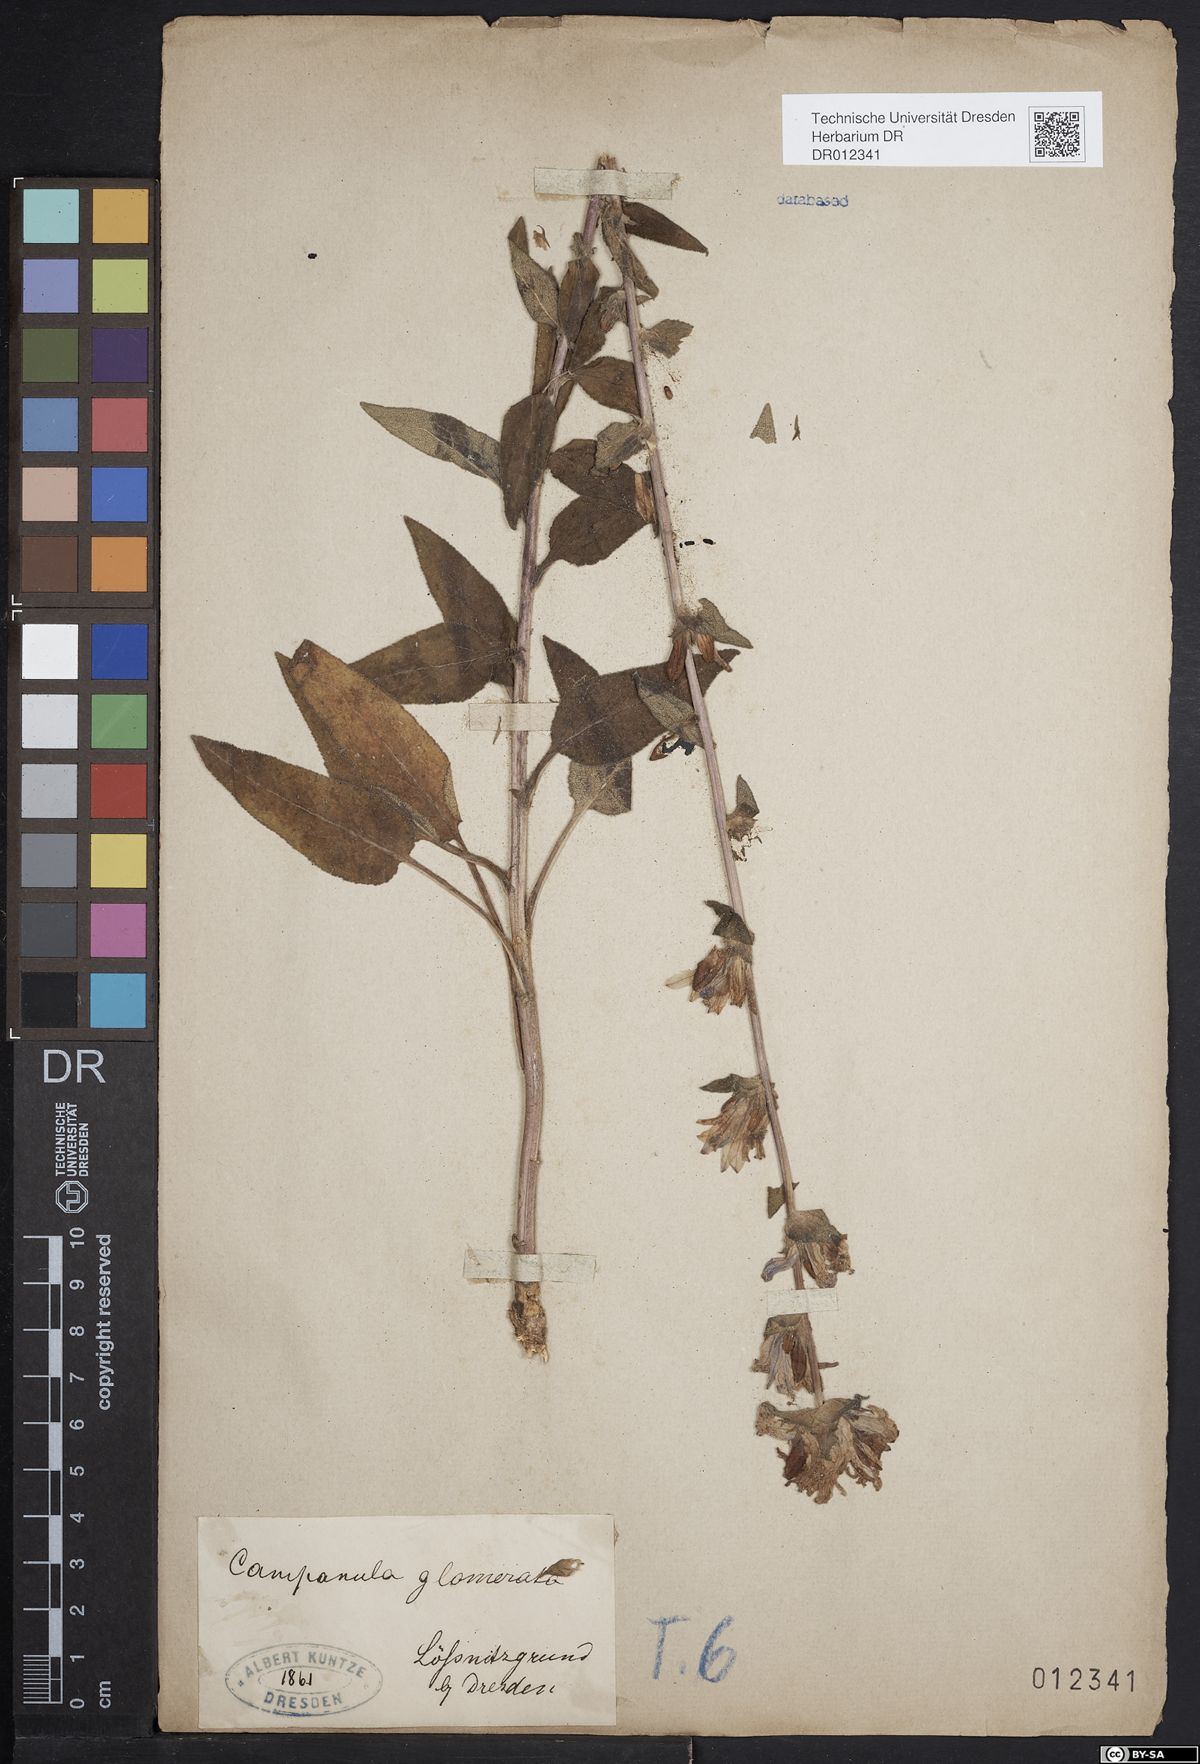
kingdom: Plantae
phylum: Tracheophyta
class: Magnoliopsida
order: Asterales
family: Campanulaceae
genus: Campanula
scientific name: Campanula glomerata
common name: Clustered bellflower
